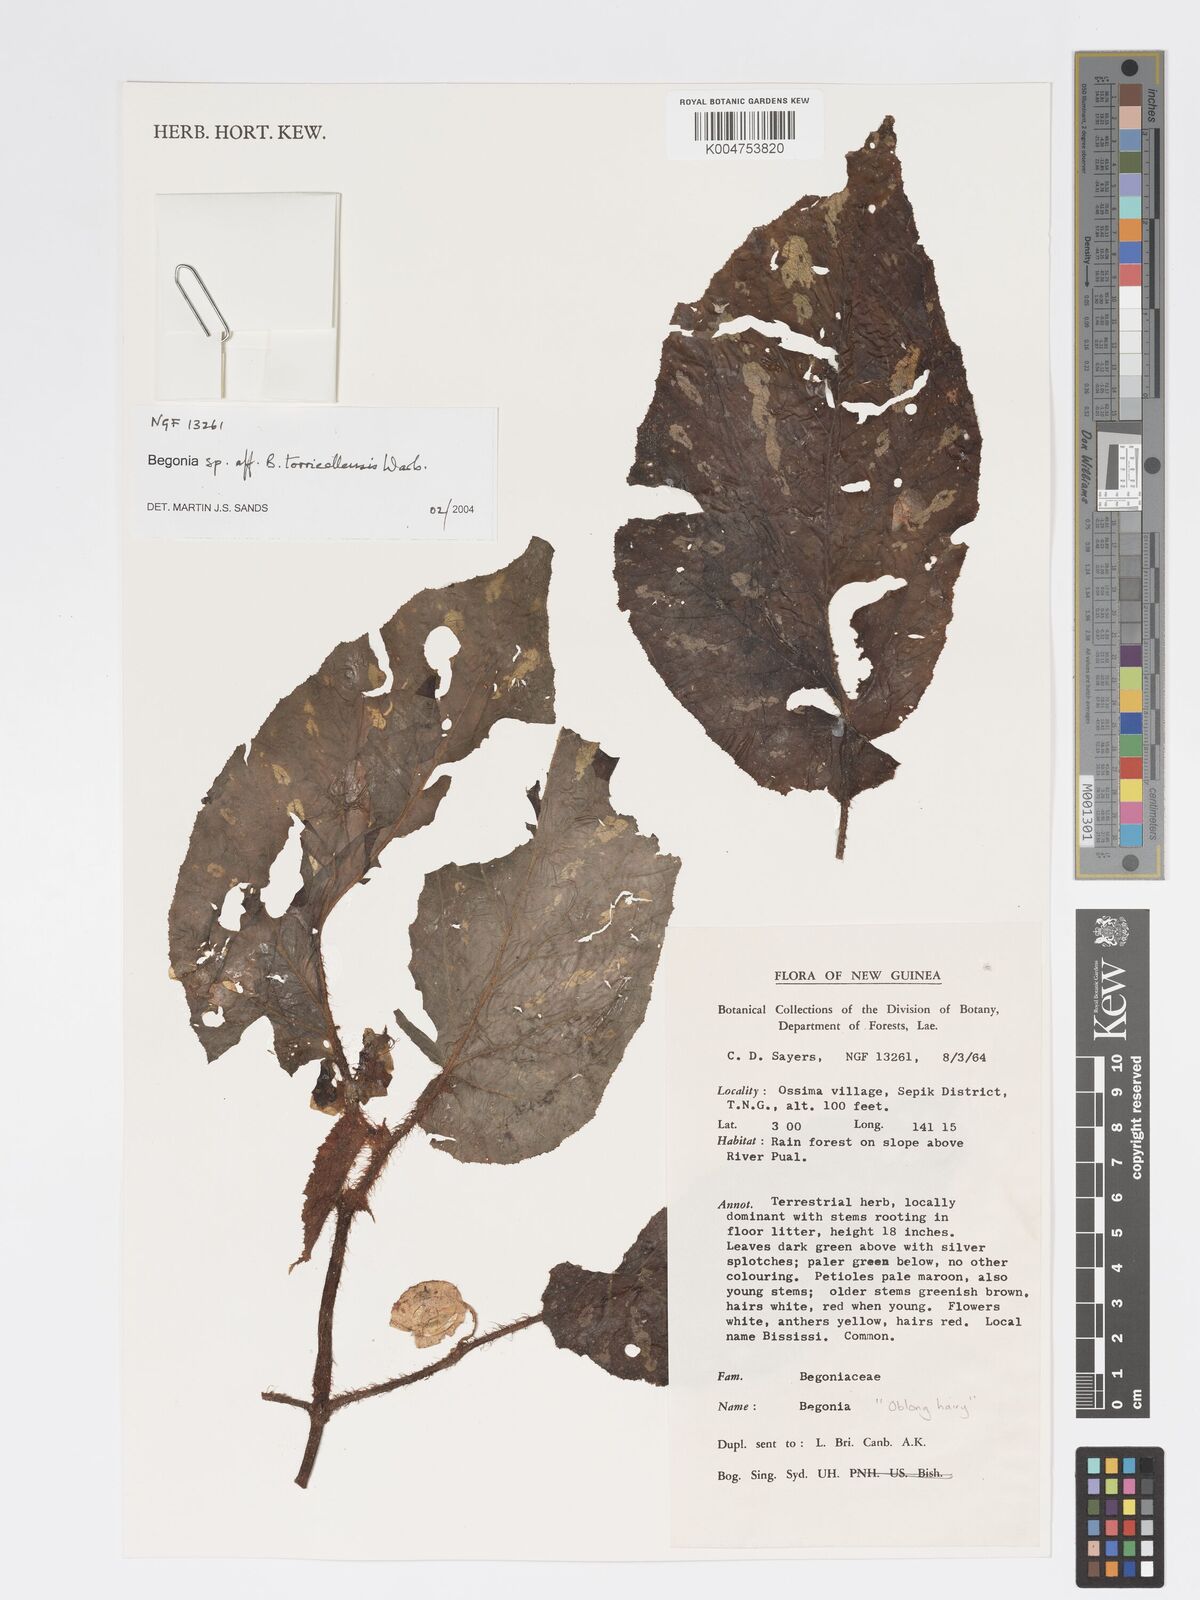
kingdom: Plantae
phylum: Tracheophyta
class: Magnoliopsida
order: Cucurbitales
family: Begoniaceae
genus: Begonia
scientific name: Begonia torricellensis
